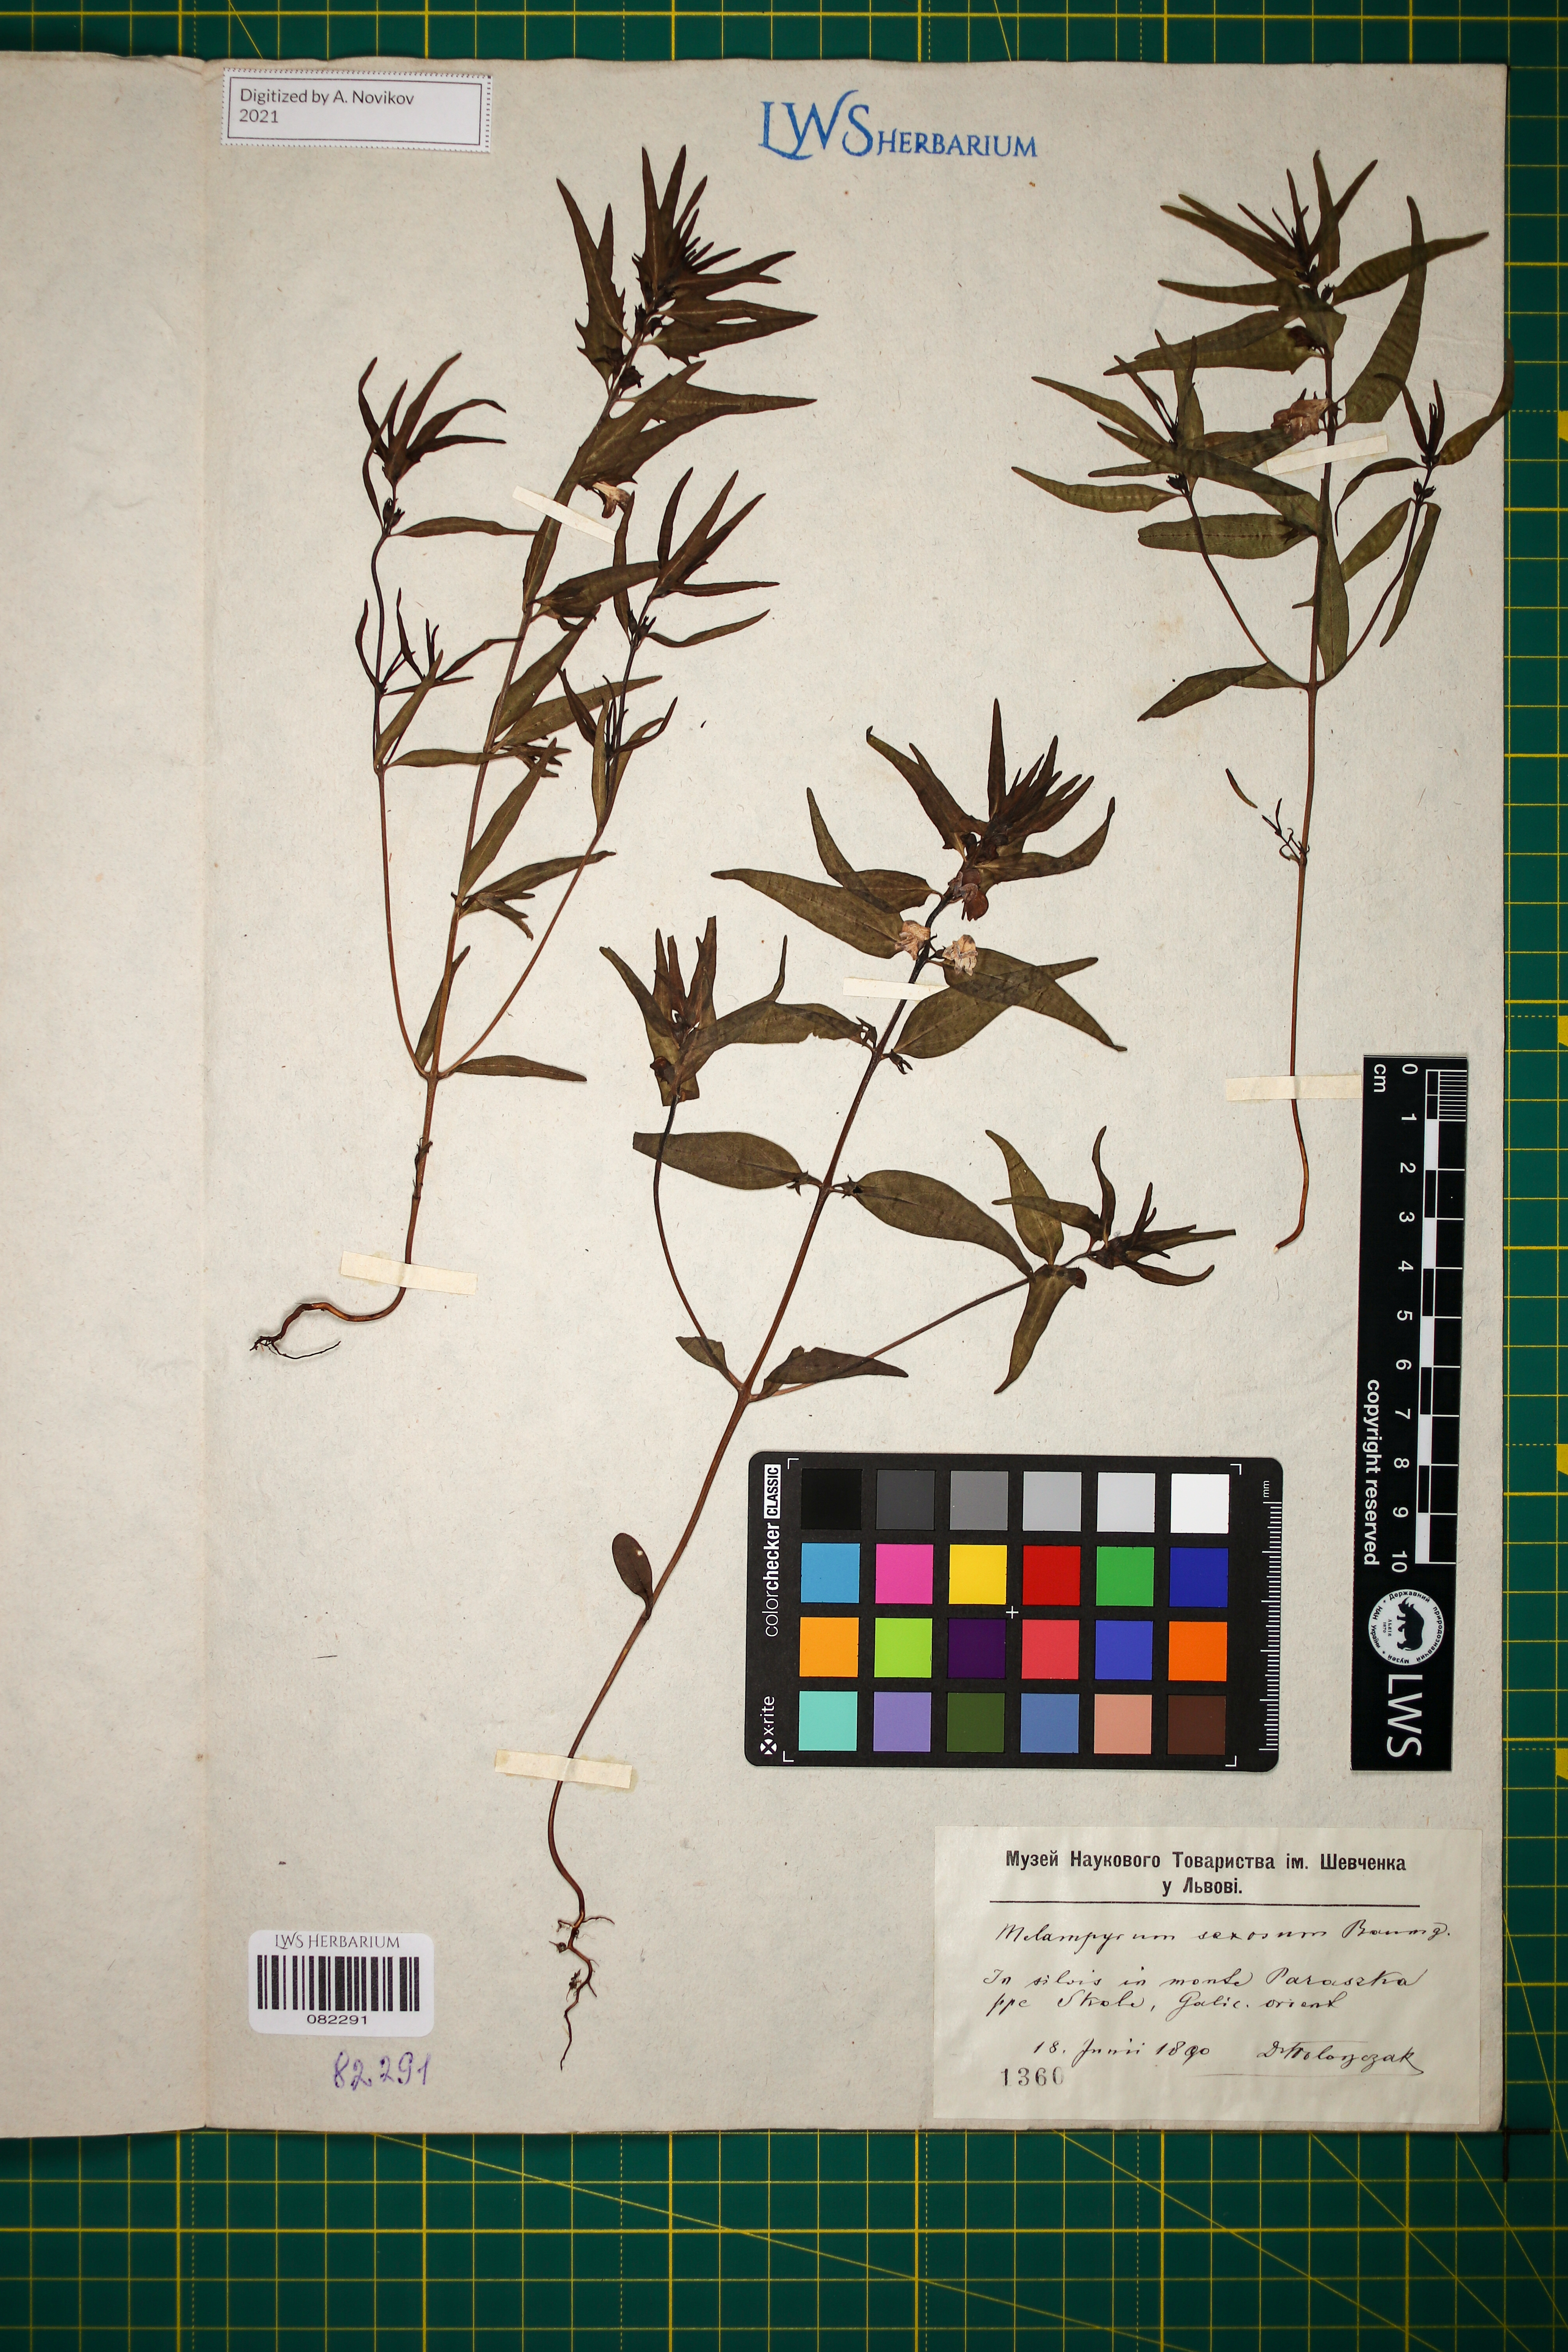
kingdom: Plantae
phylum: Tracheophyta
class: Magnoliopsida
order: Lamiales
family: Orobanchaceae
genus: Melampyrum
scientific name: Melampyrum saxosum
